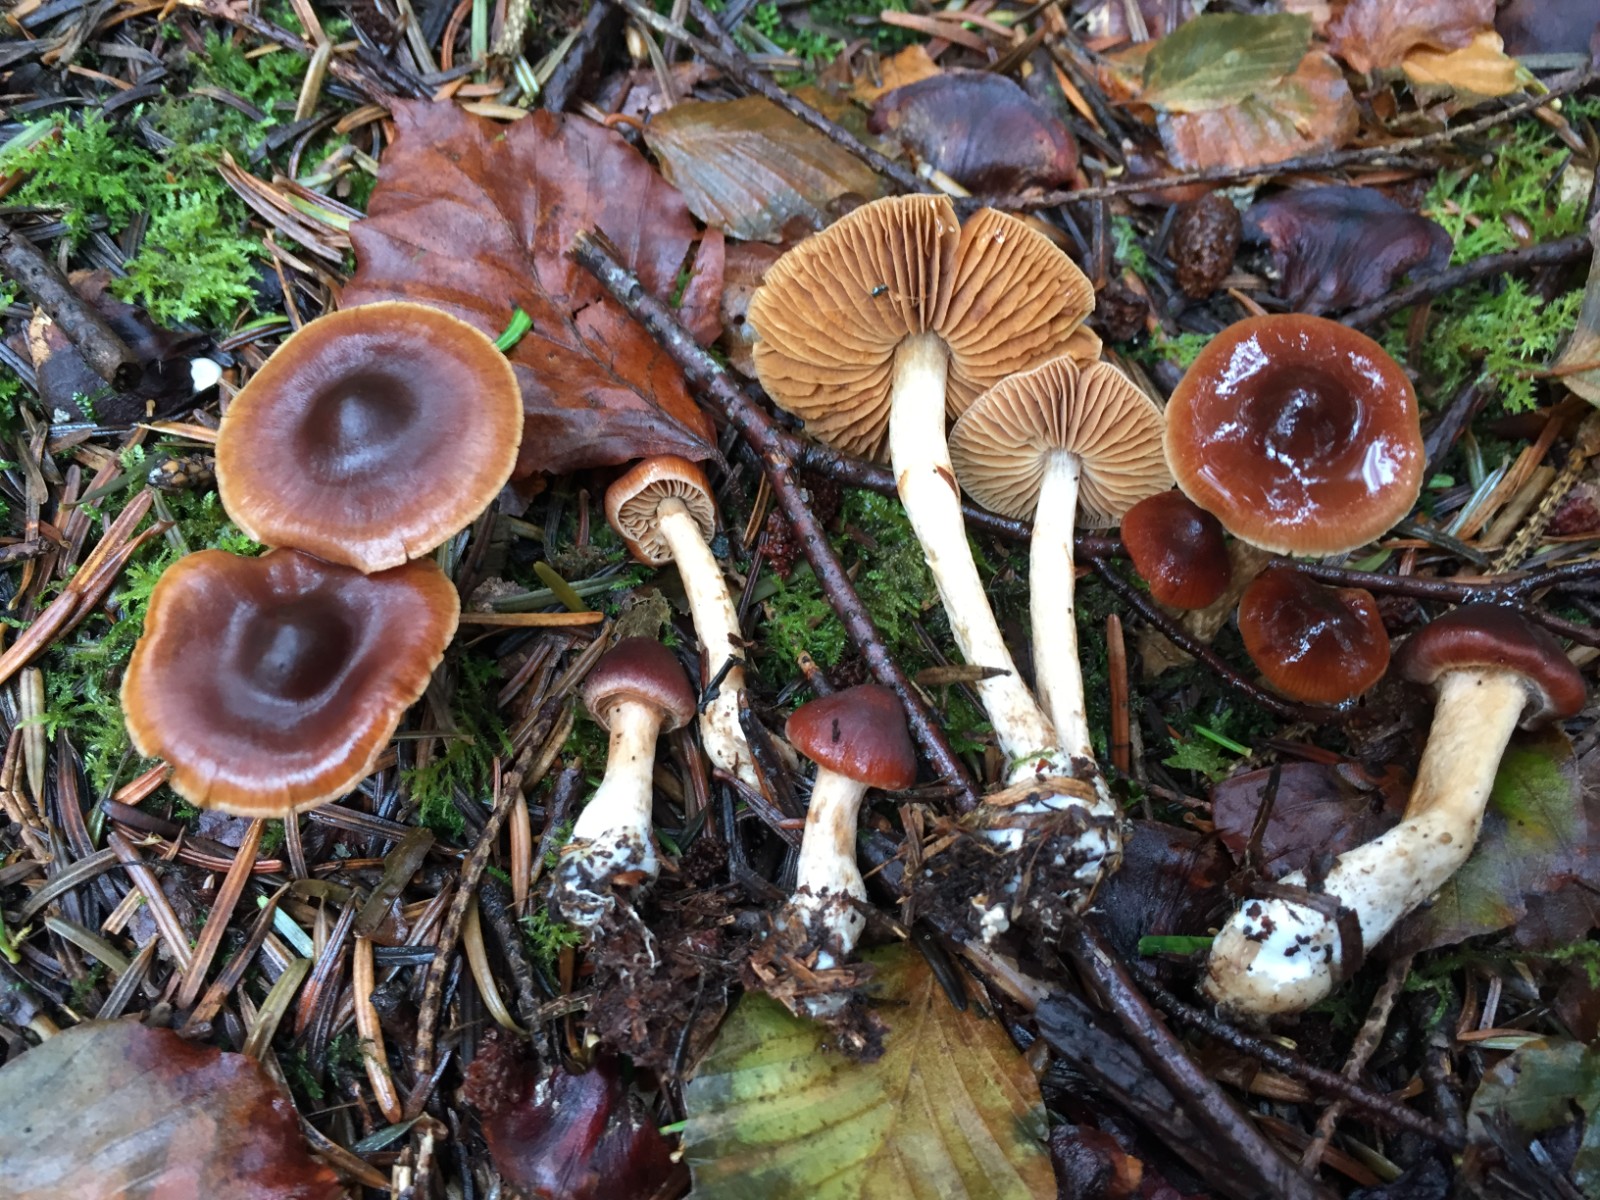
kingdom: Fungi
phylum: Basidiomycota
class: Agaricomycetes
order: Agaricales
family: Cortinariaceae
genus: Cortinarius
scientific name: Cortinarius
